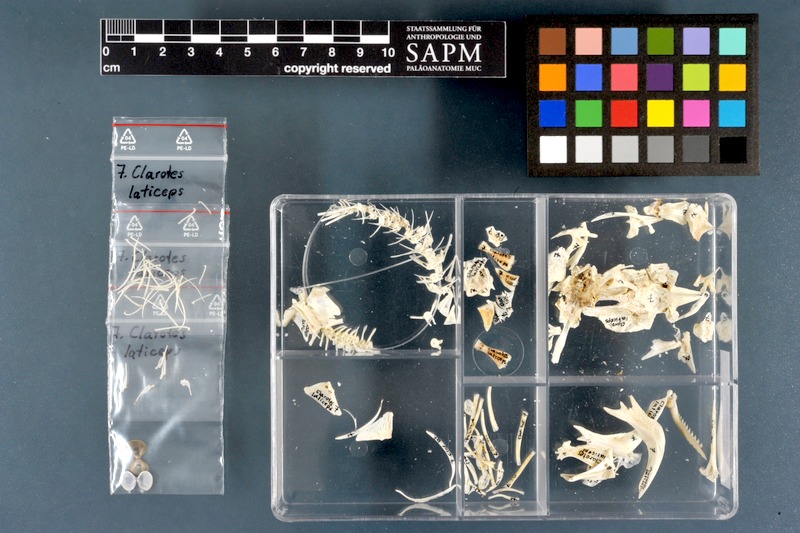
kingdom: Animalia
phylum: Chordata
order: Siluriformes
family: Claroteidae
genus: Clarotes
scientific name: Clarotes laticeps
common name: Spiny catfish
